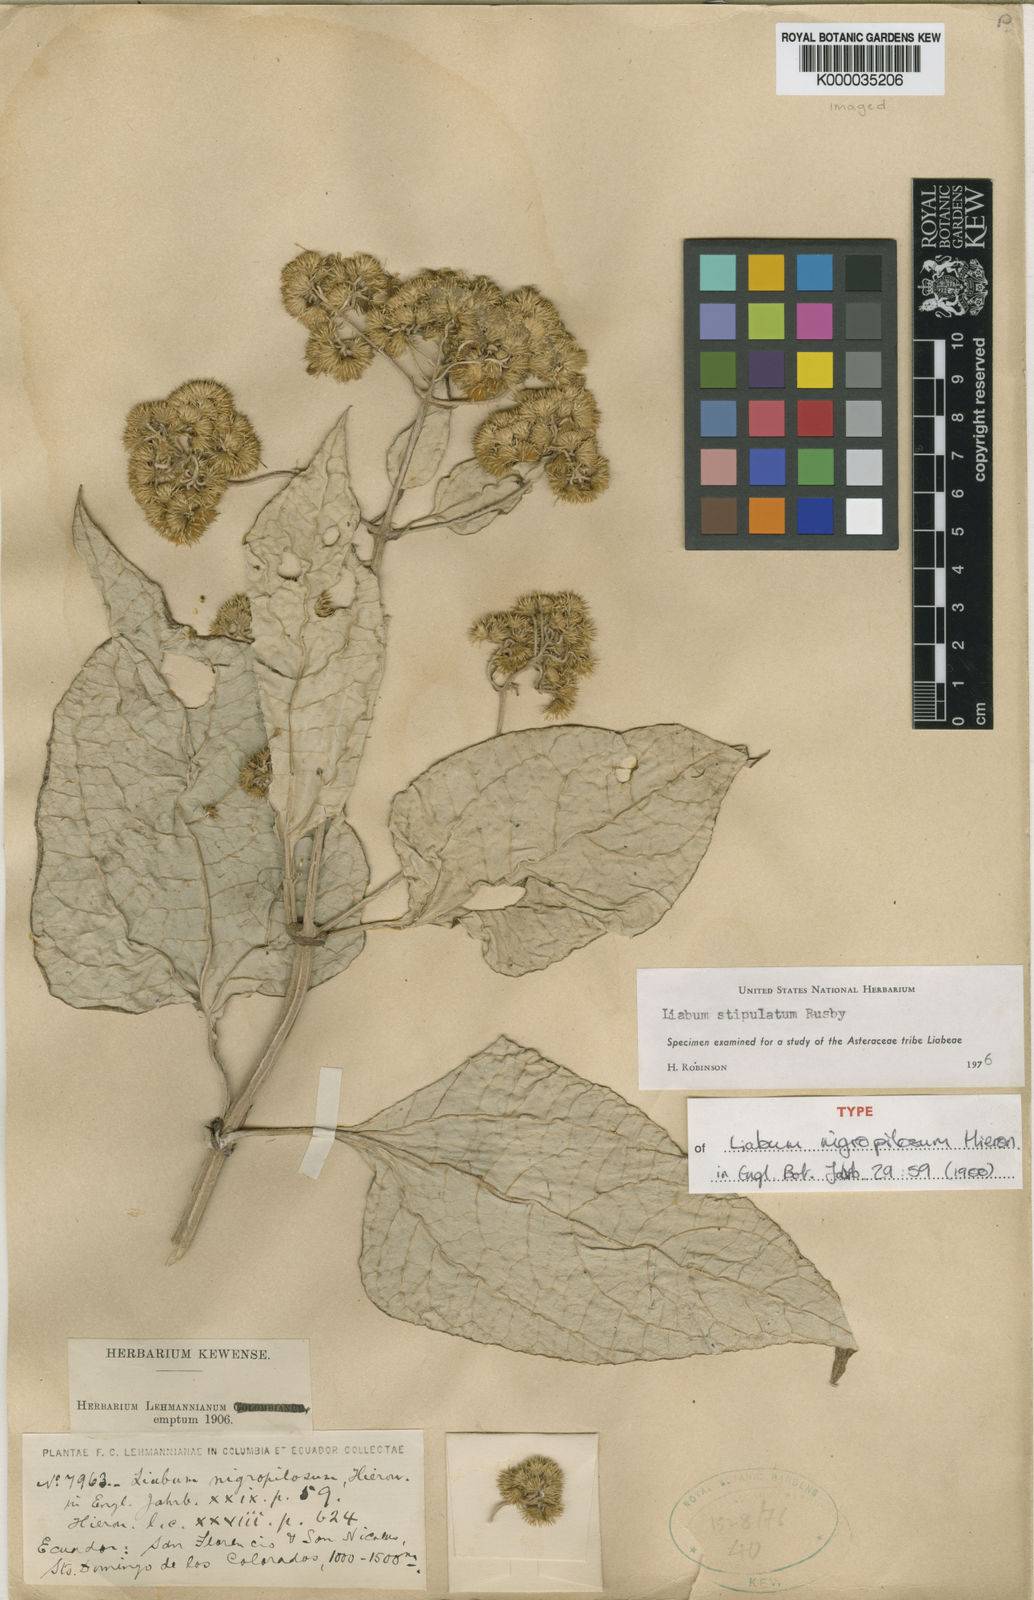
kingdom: Plantae
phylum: Tracheophyta
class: Magnoliopsida
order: Asterales
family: Asteraceae
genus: Liabum
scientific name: Liabum nigropilosum
